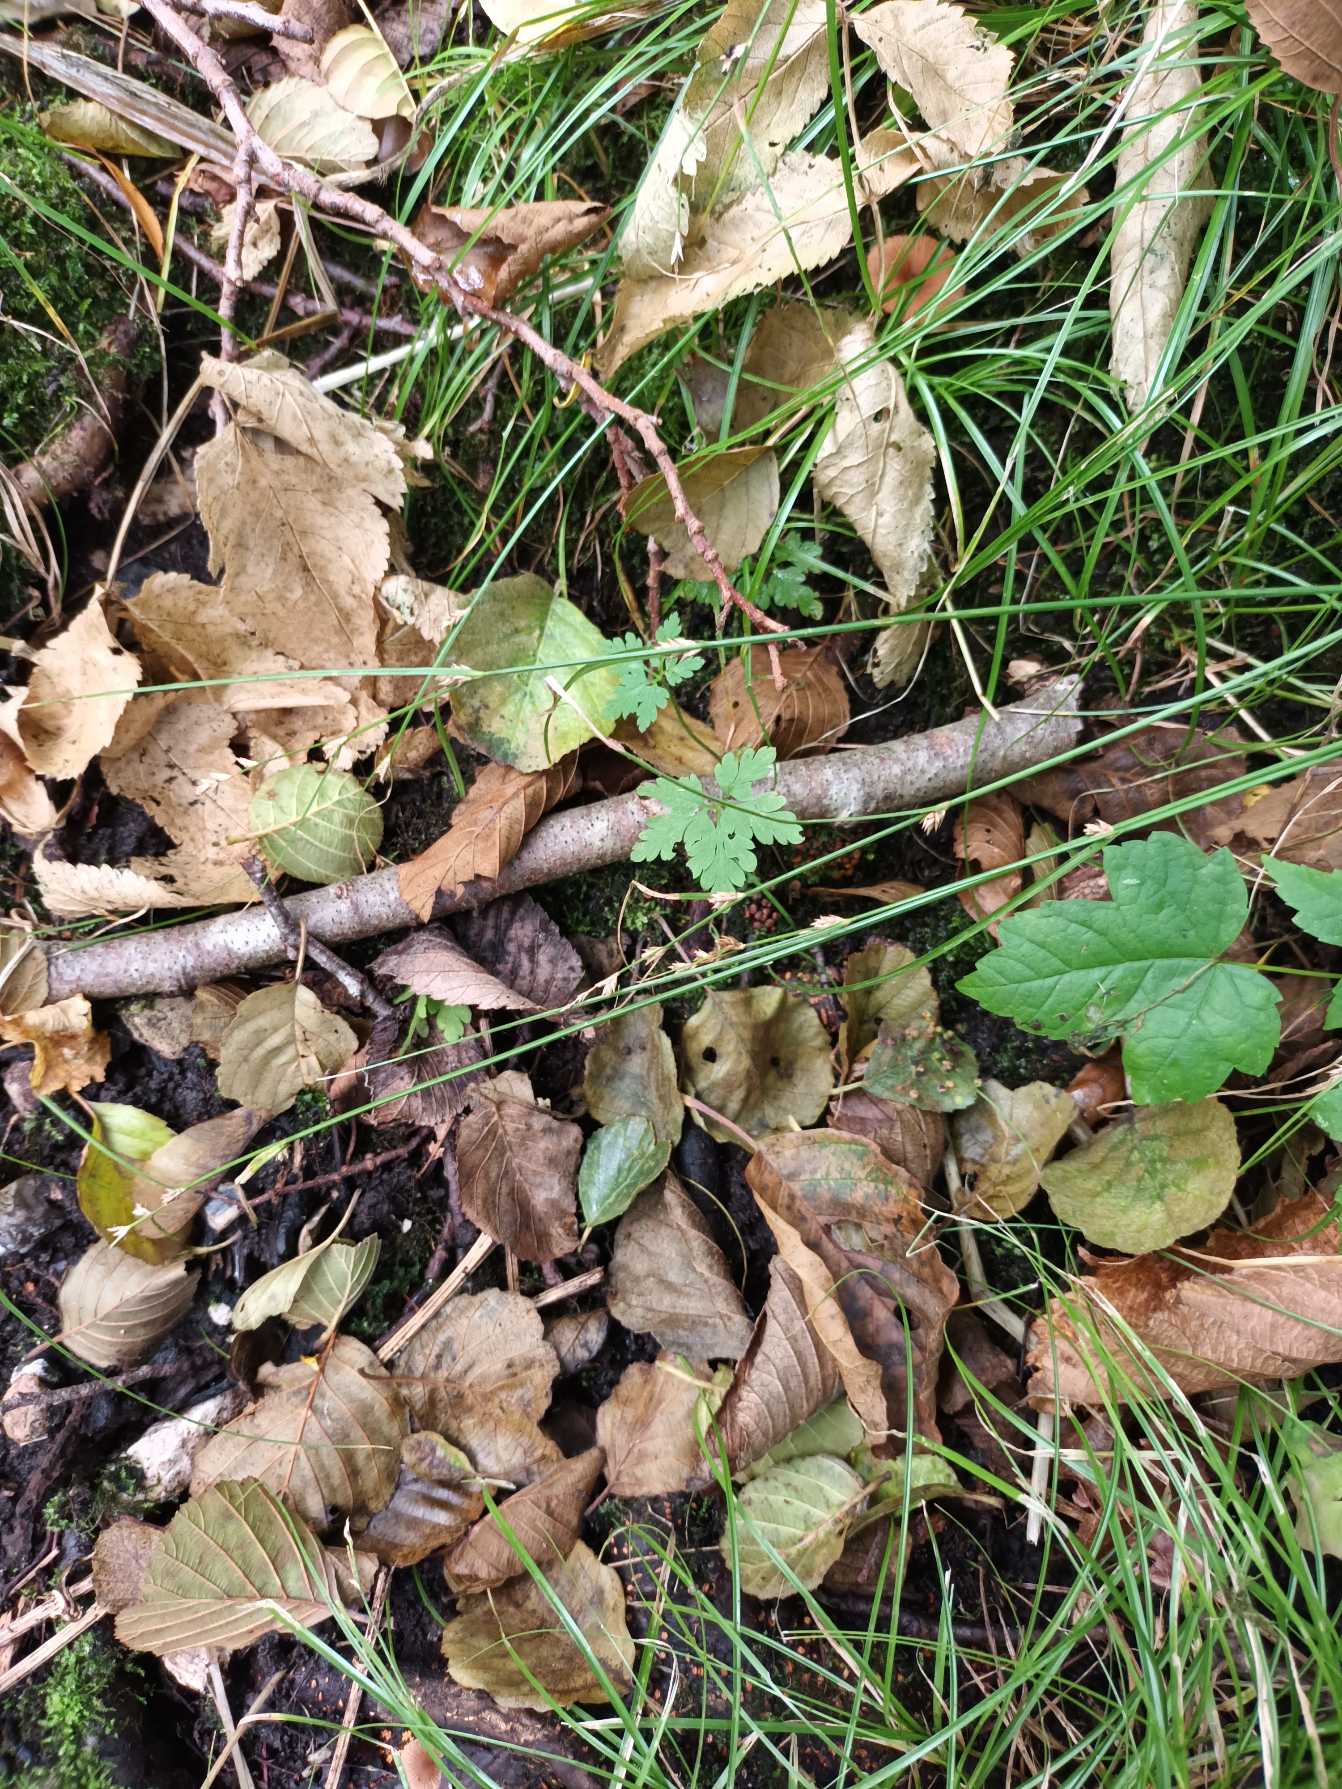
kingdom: Plantae
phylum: Tracheophyta
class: Liliopsida
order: Poales
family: Cyperaceae
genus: Carex
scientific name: Carex remota
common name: Akselblomstret star
